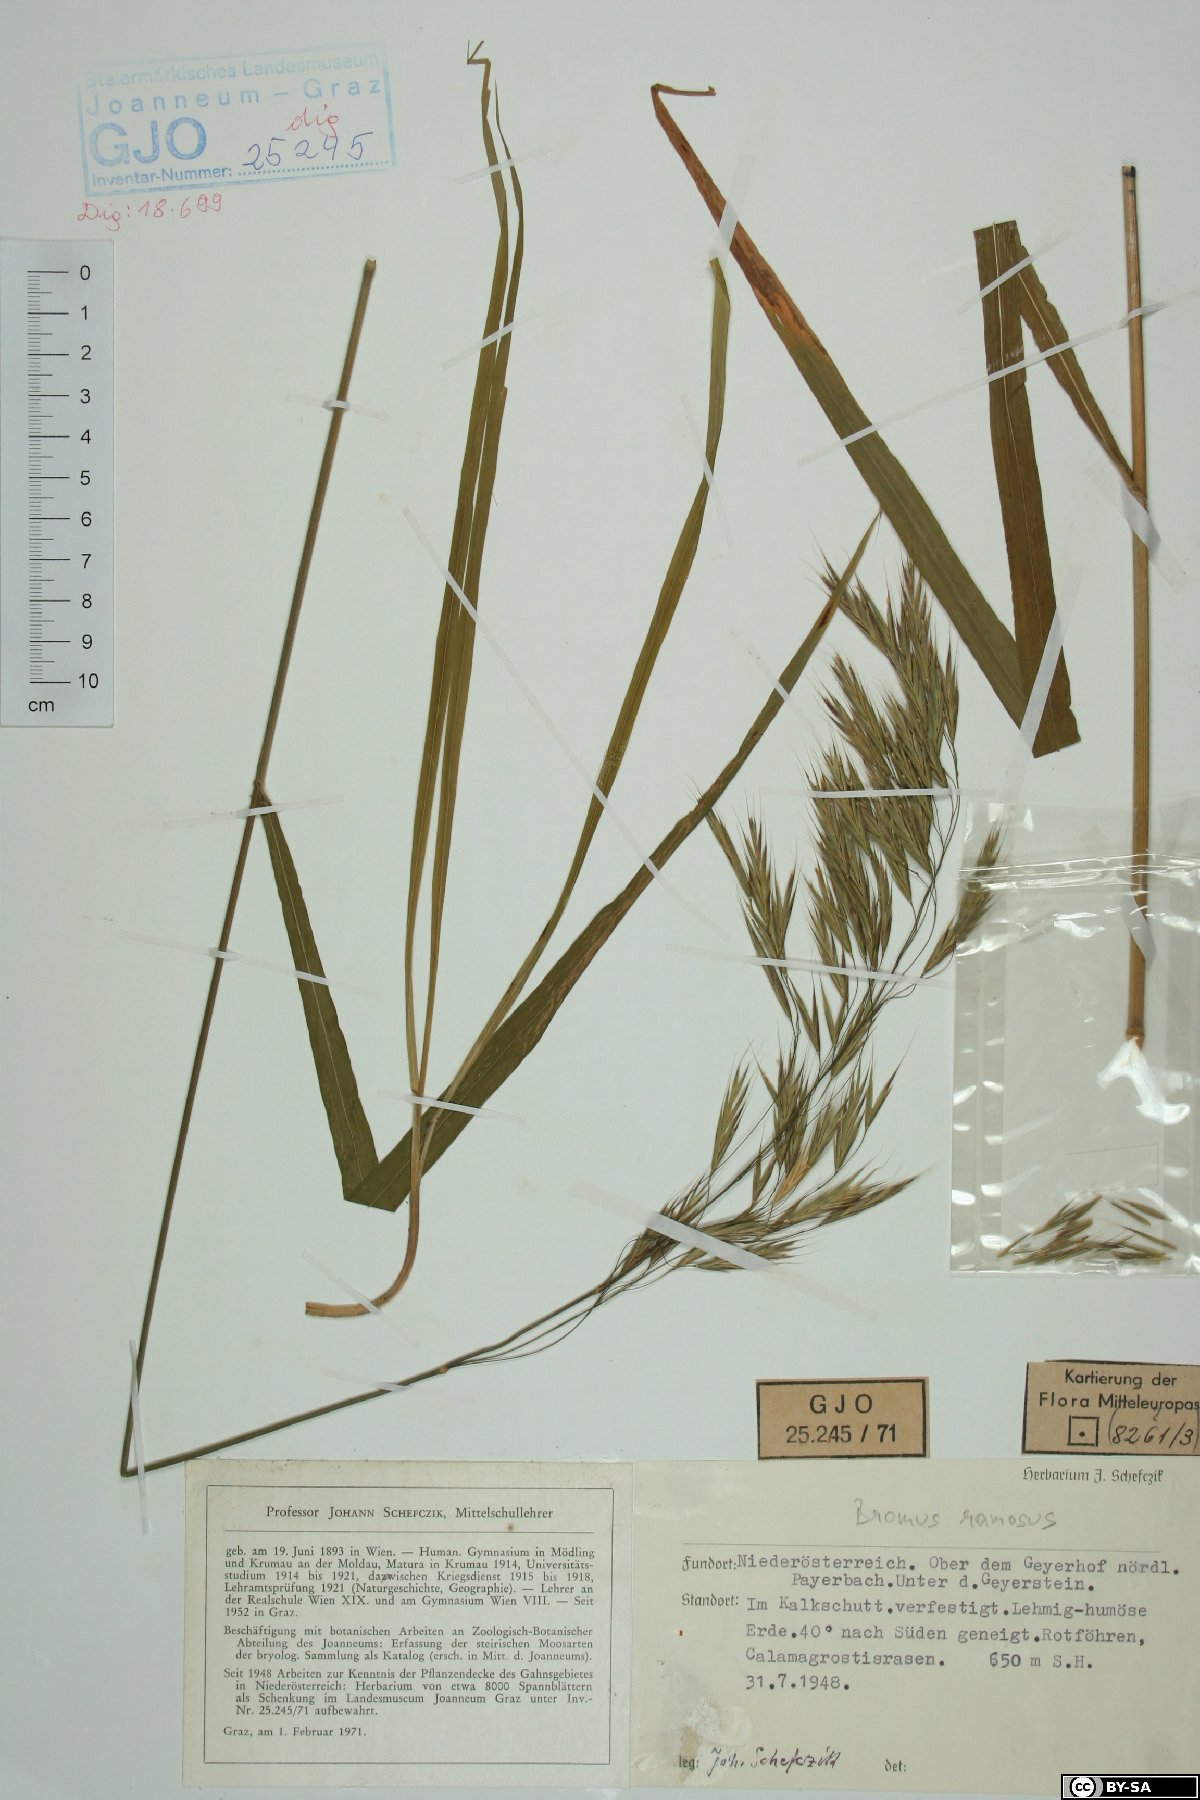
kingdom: Plantae
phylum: Tracheophyta
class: Liliopsida
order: Poales
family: Poaceae
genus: Bromus
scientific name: Bromus ramosus
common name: Hairy brome
